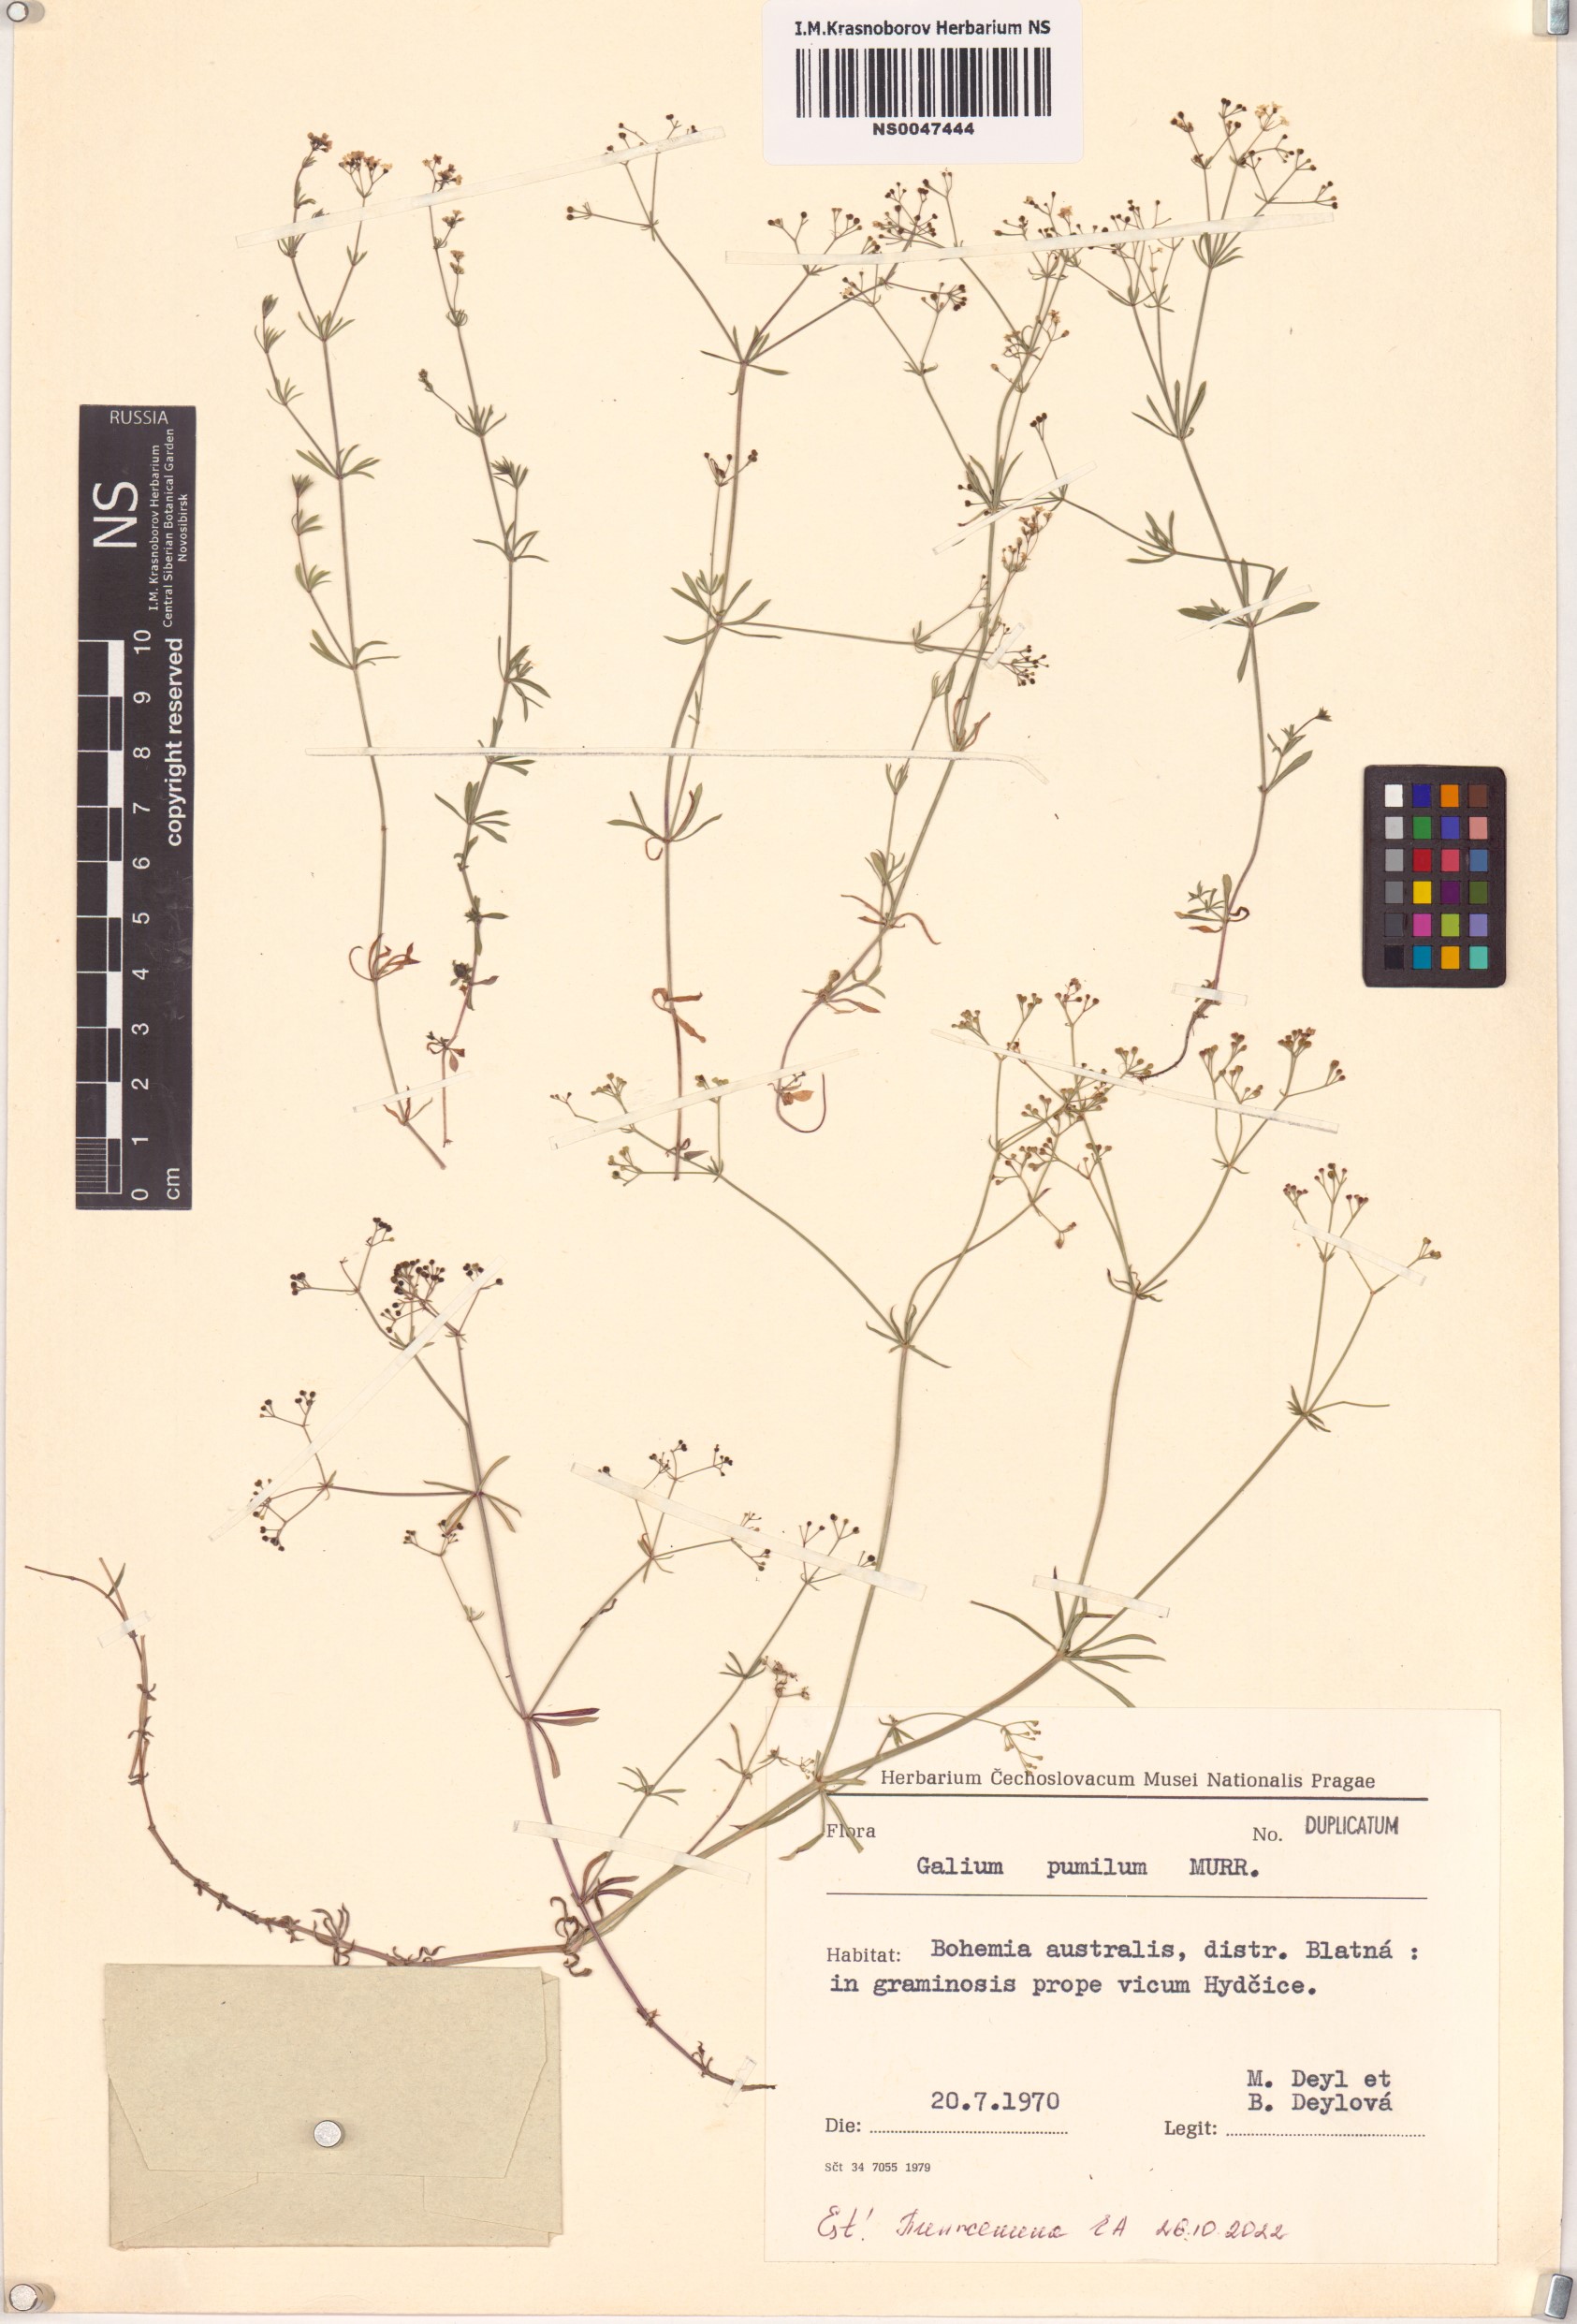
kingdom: Plantae
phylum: Tracheophyta
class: Magnoliopsida
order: Gentianales
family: Rubiaceae
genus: Galium
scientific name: Galium pumilum
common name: Slender bedstraw
